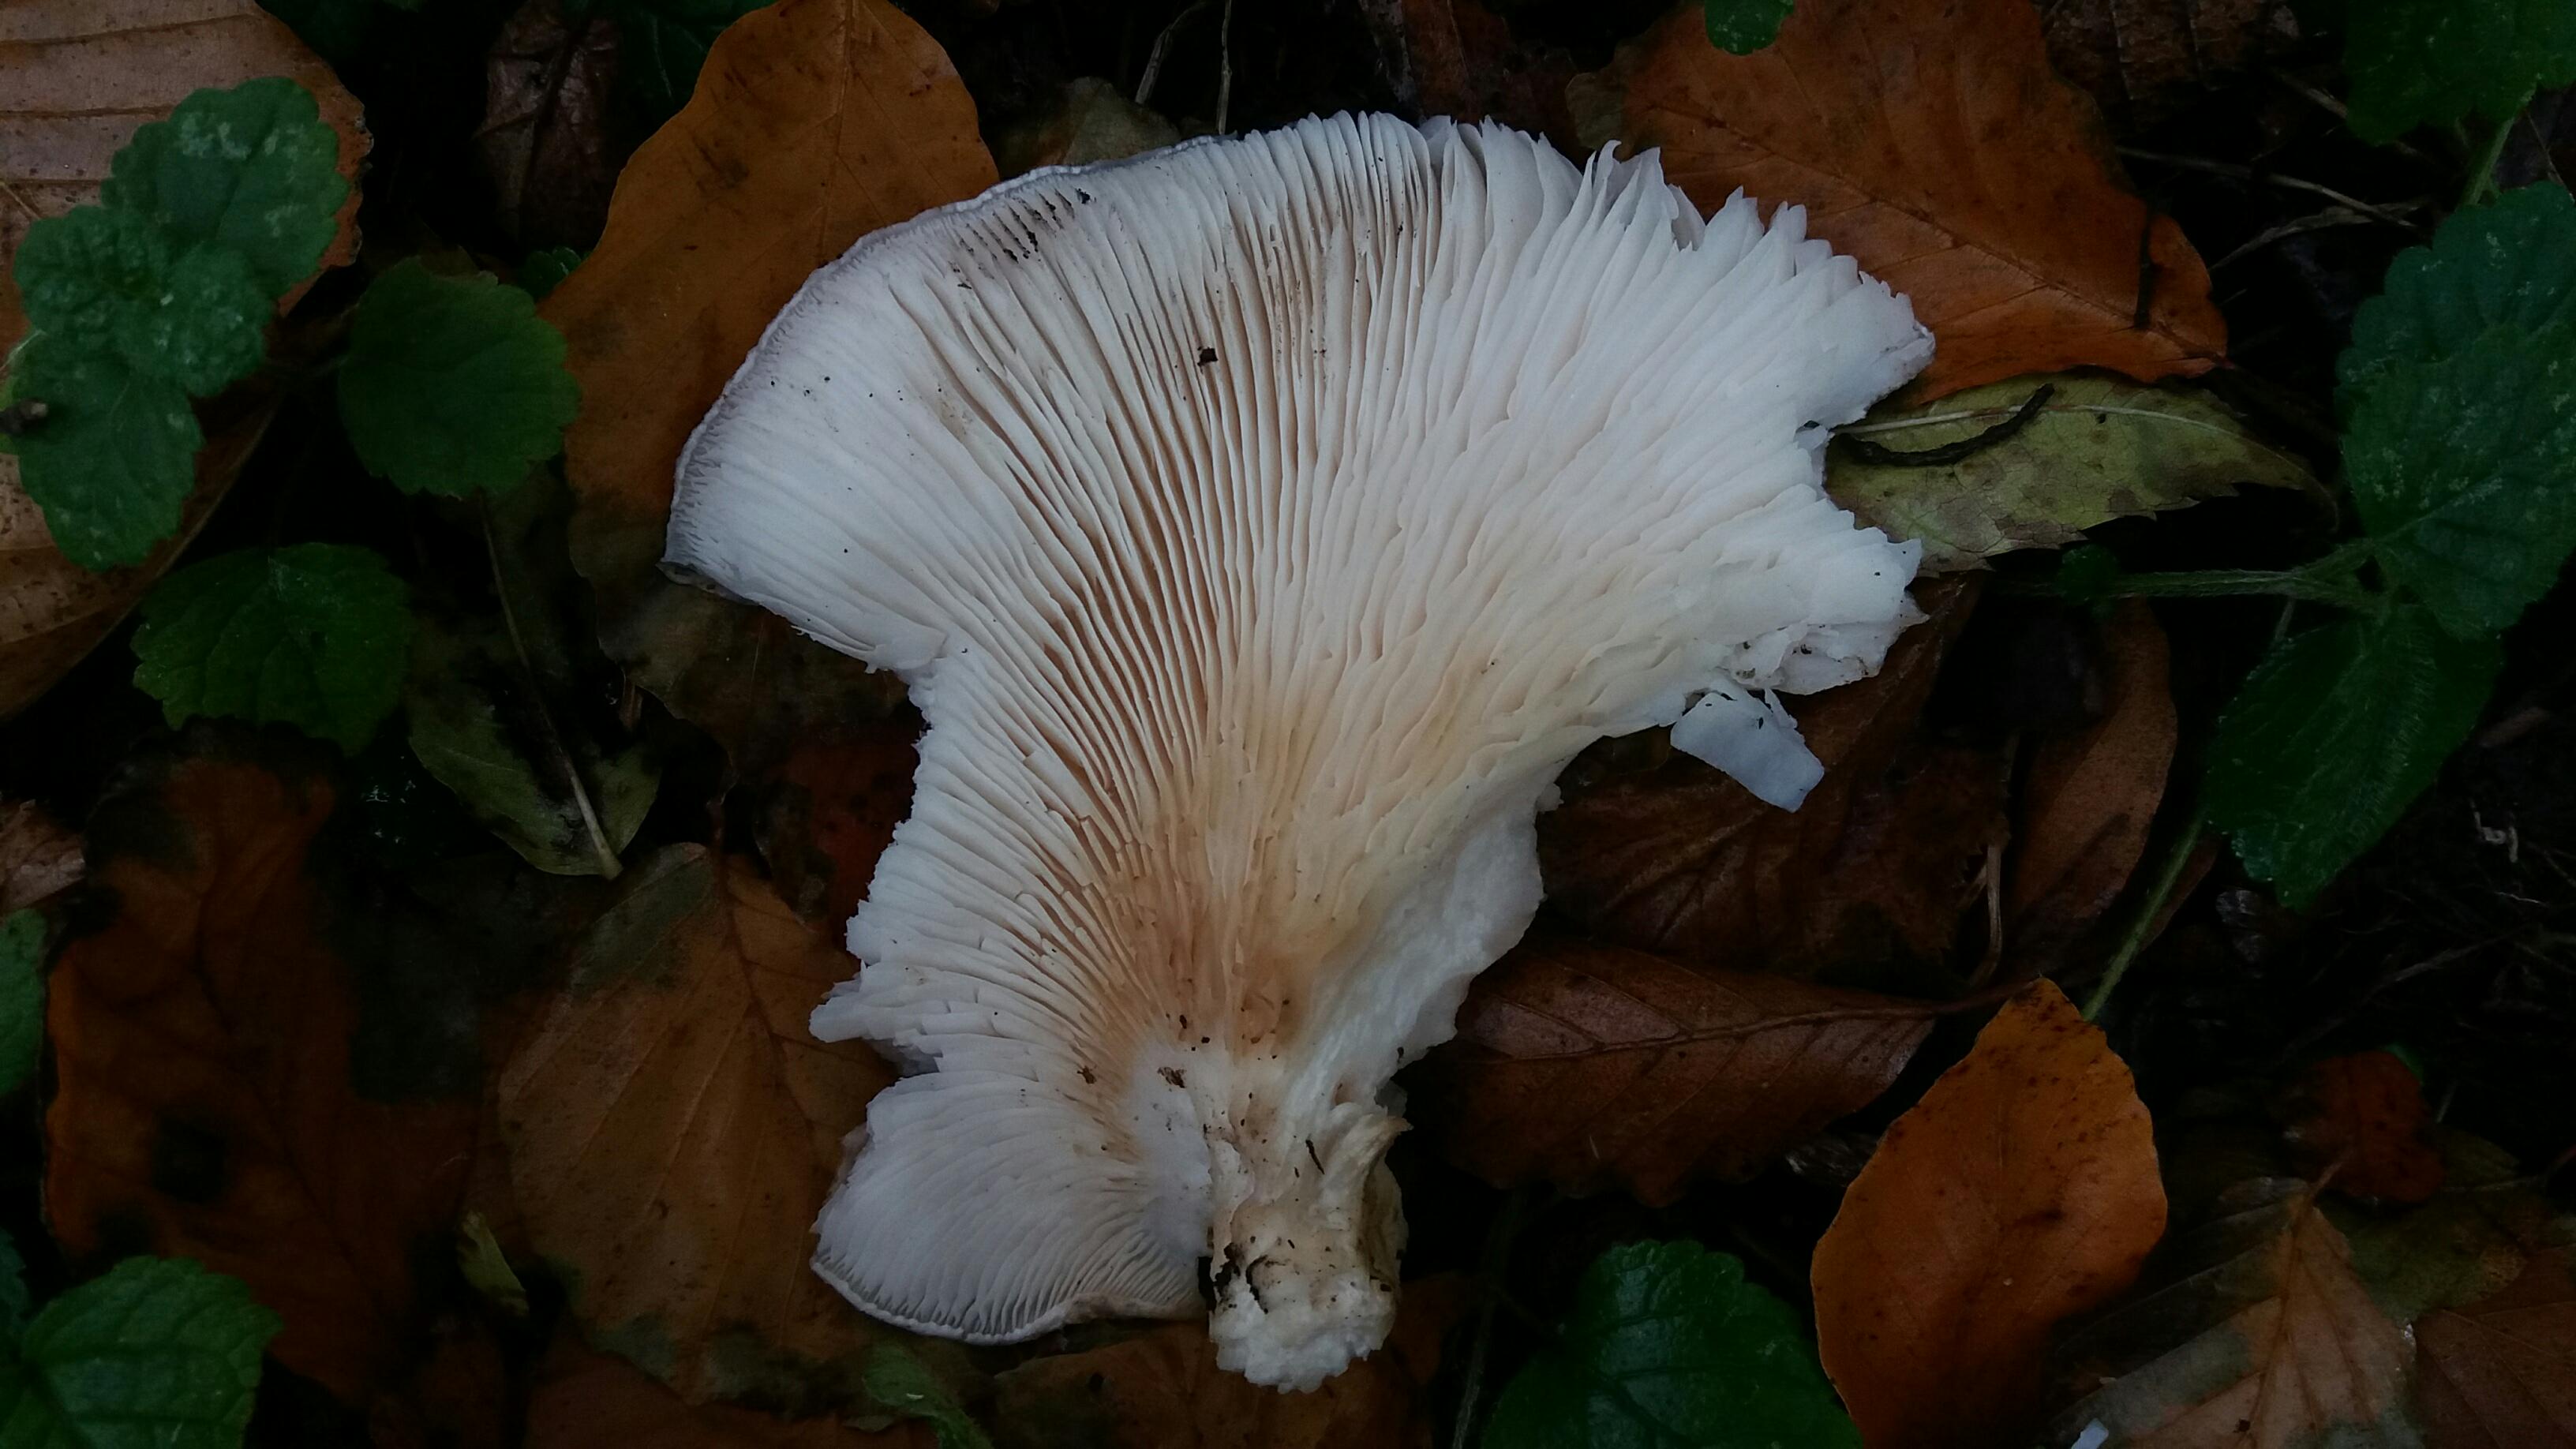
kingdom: Fungi
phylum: Basidiomycota
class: Agaricomycetes
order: Agaricales
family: Pleurotaceae
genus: Pleurotus
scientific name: Pleurotus dryinus
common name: korkagtig østershat
